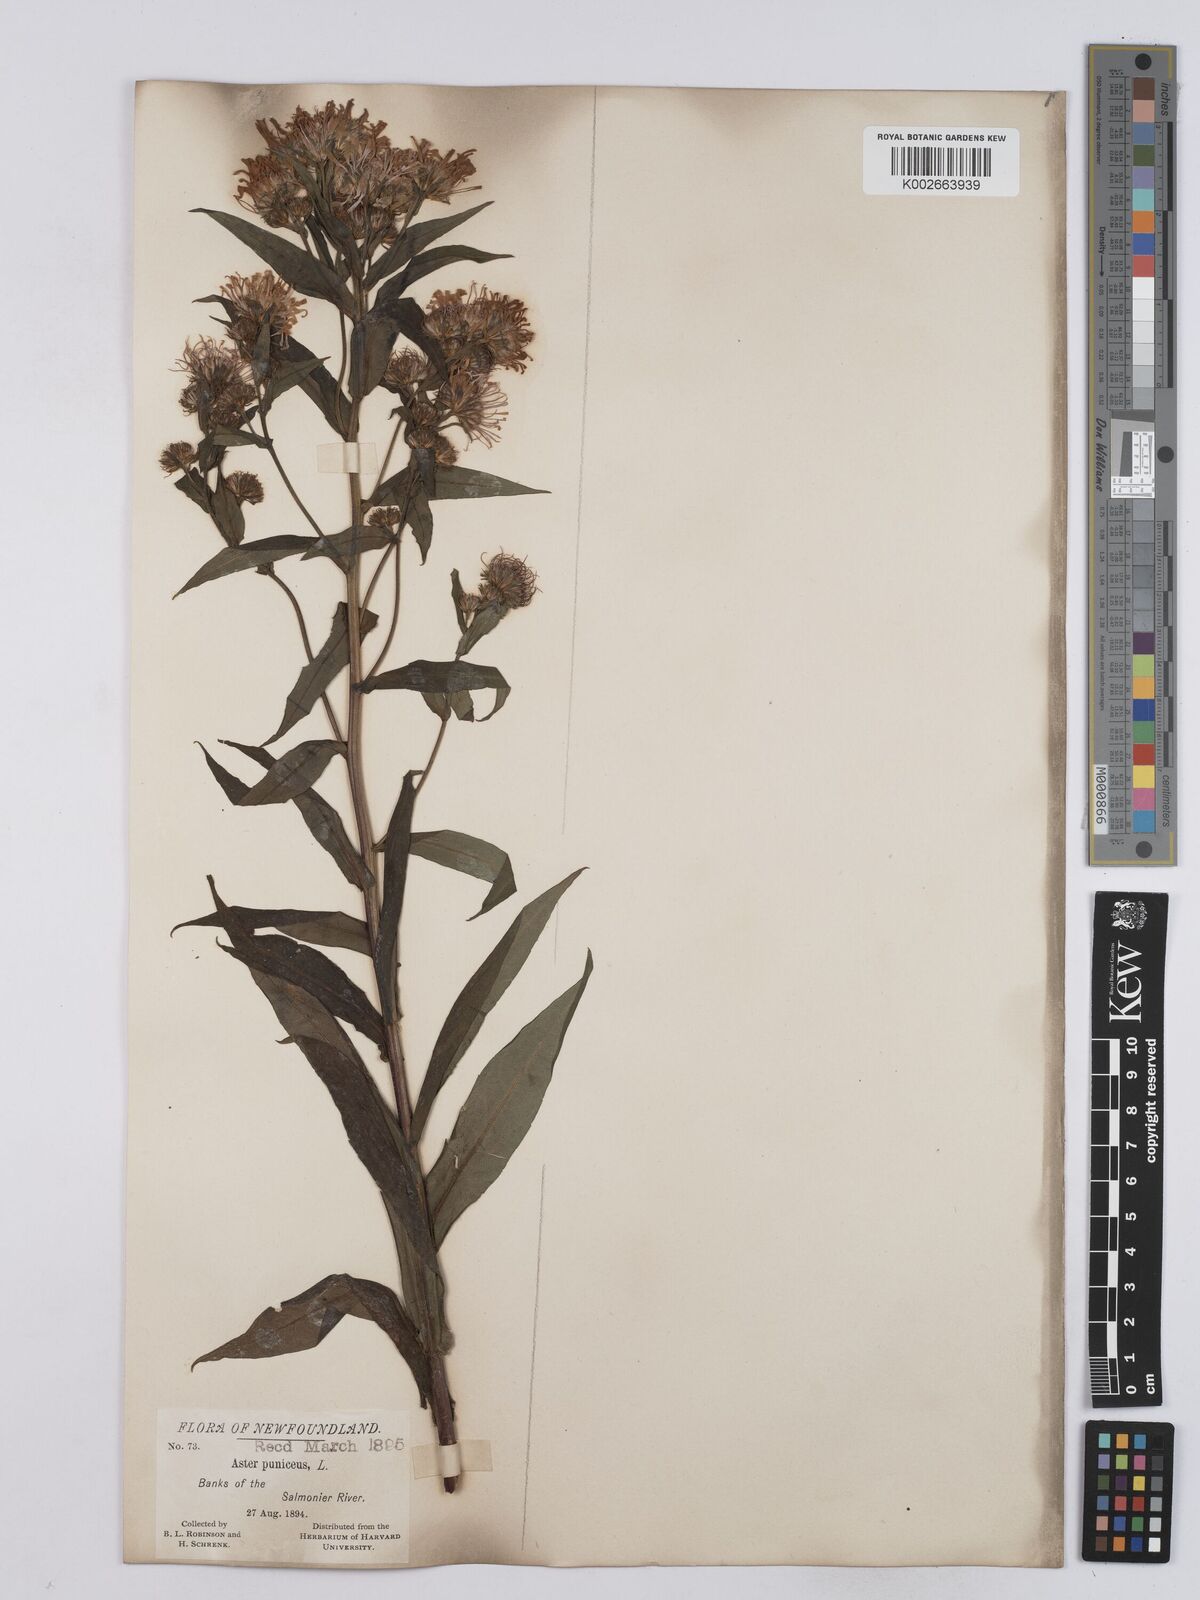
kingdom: Plantae
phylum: Tracheophyta
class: Magnoliopsida
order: Asterales
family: Asteraceae
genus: Symphyotrichum
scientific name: Symphyotrichum puniceum
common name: Bog aster
